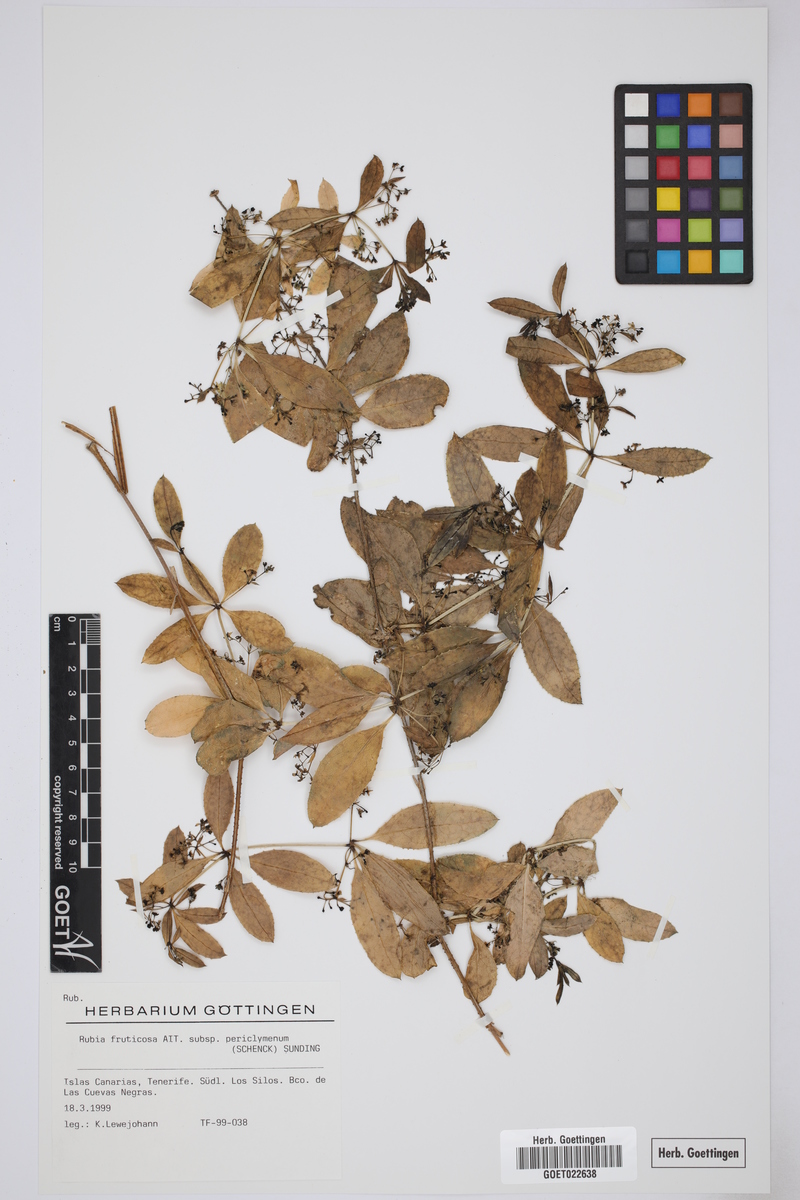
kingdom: Plantae
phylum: Tracheophyta
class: Magnoliopsida
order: Gentianales
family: Rubiaceae
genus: Rubia
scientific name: Rubia fruticosa
